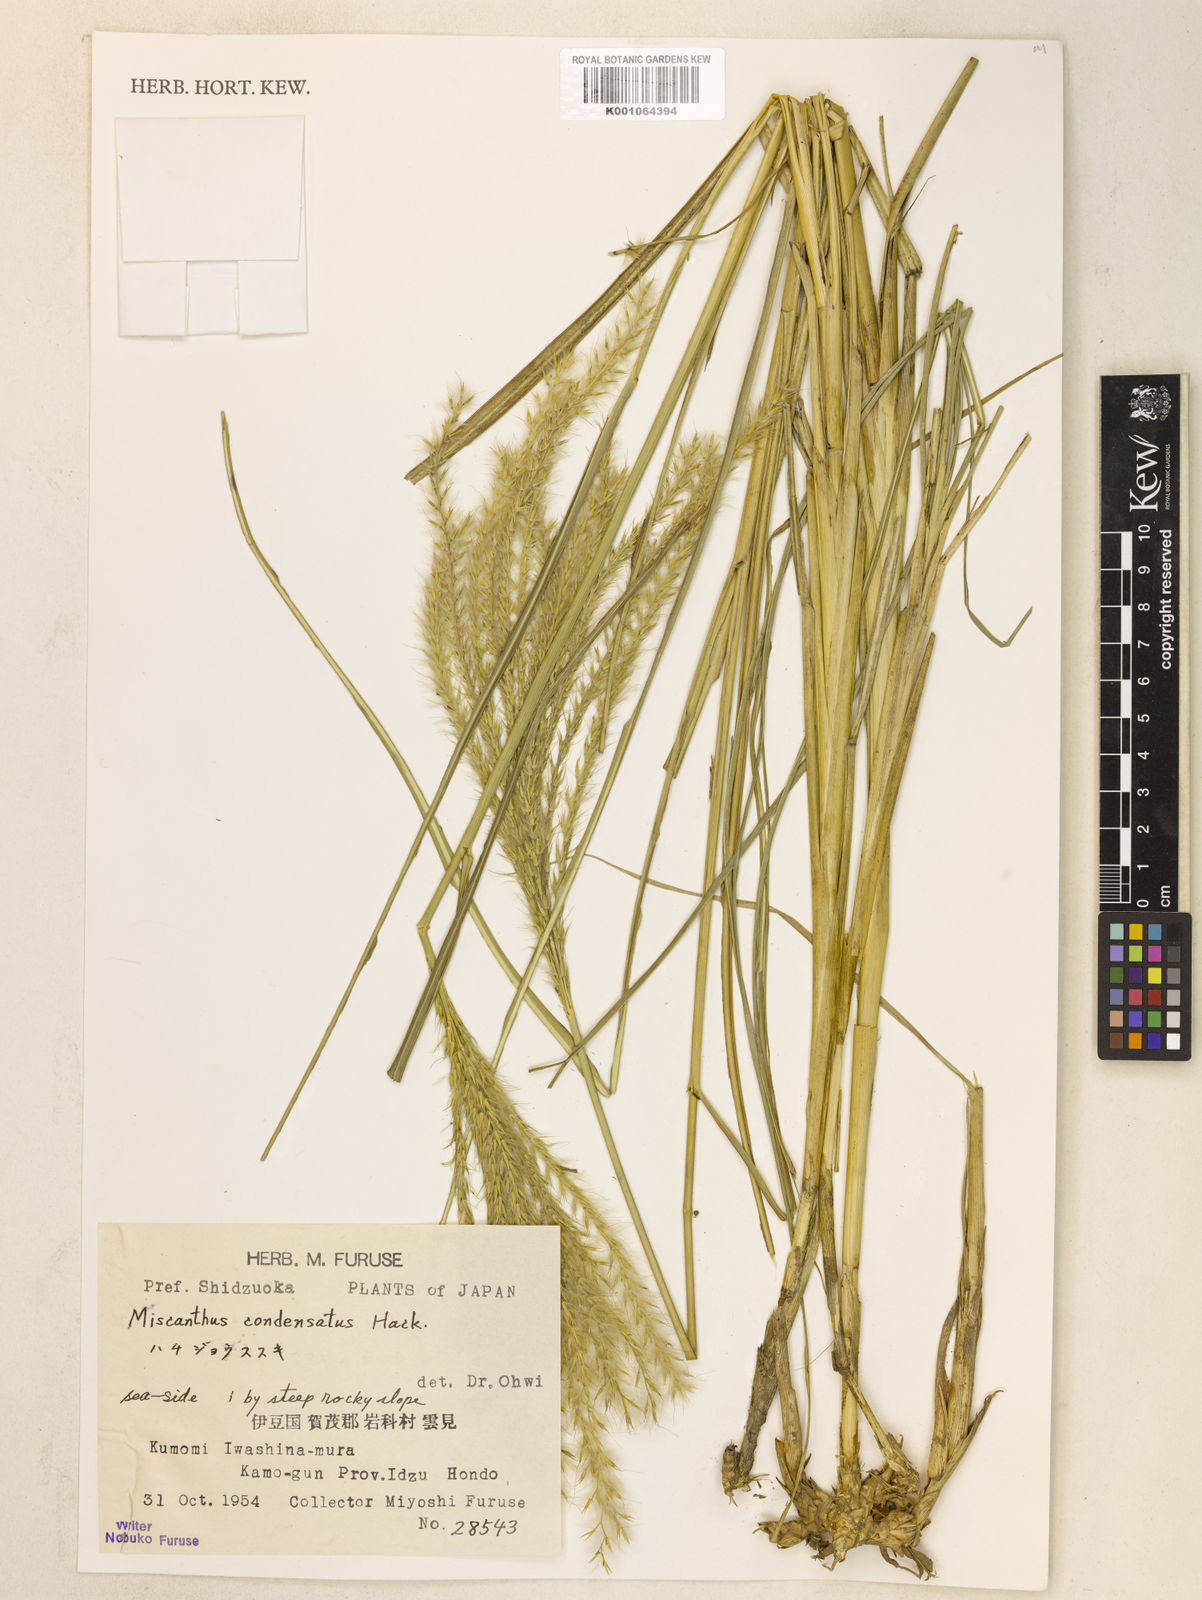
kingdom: Plantae
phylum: Tracheophyta
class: Liliopsida
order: Poales
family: Poaceae
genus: Miscanthus
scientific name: Miscanthus sinensis
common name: Chinese silvergrass
